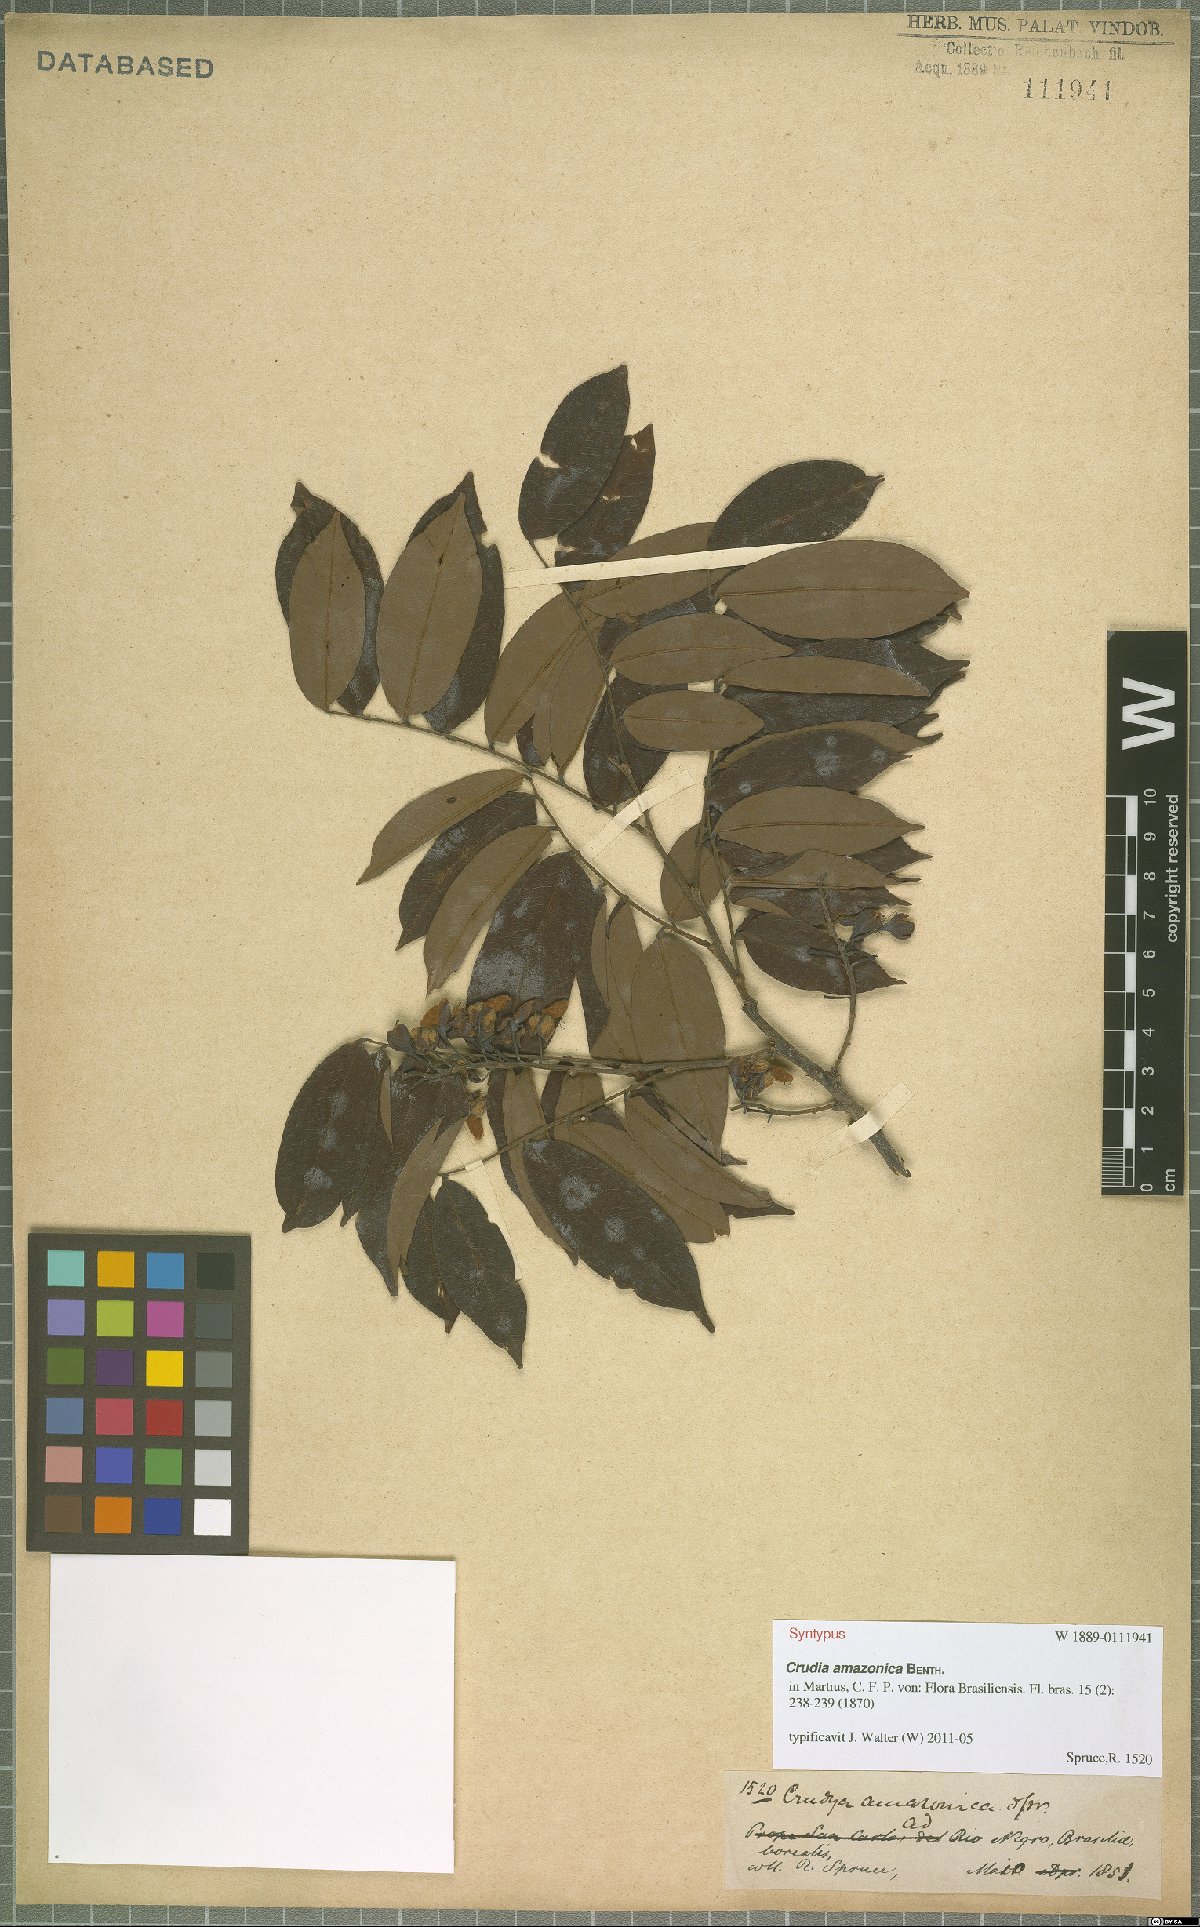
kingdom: Plantae
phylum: Tracheophyta
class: Magnoliopsida
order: Fabales
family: Fabaceae
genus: Crudia
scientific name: Crudia amazonica
